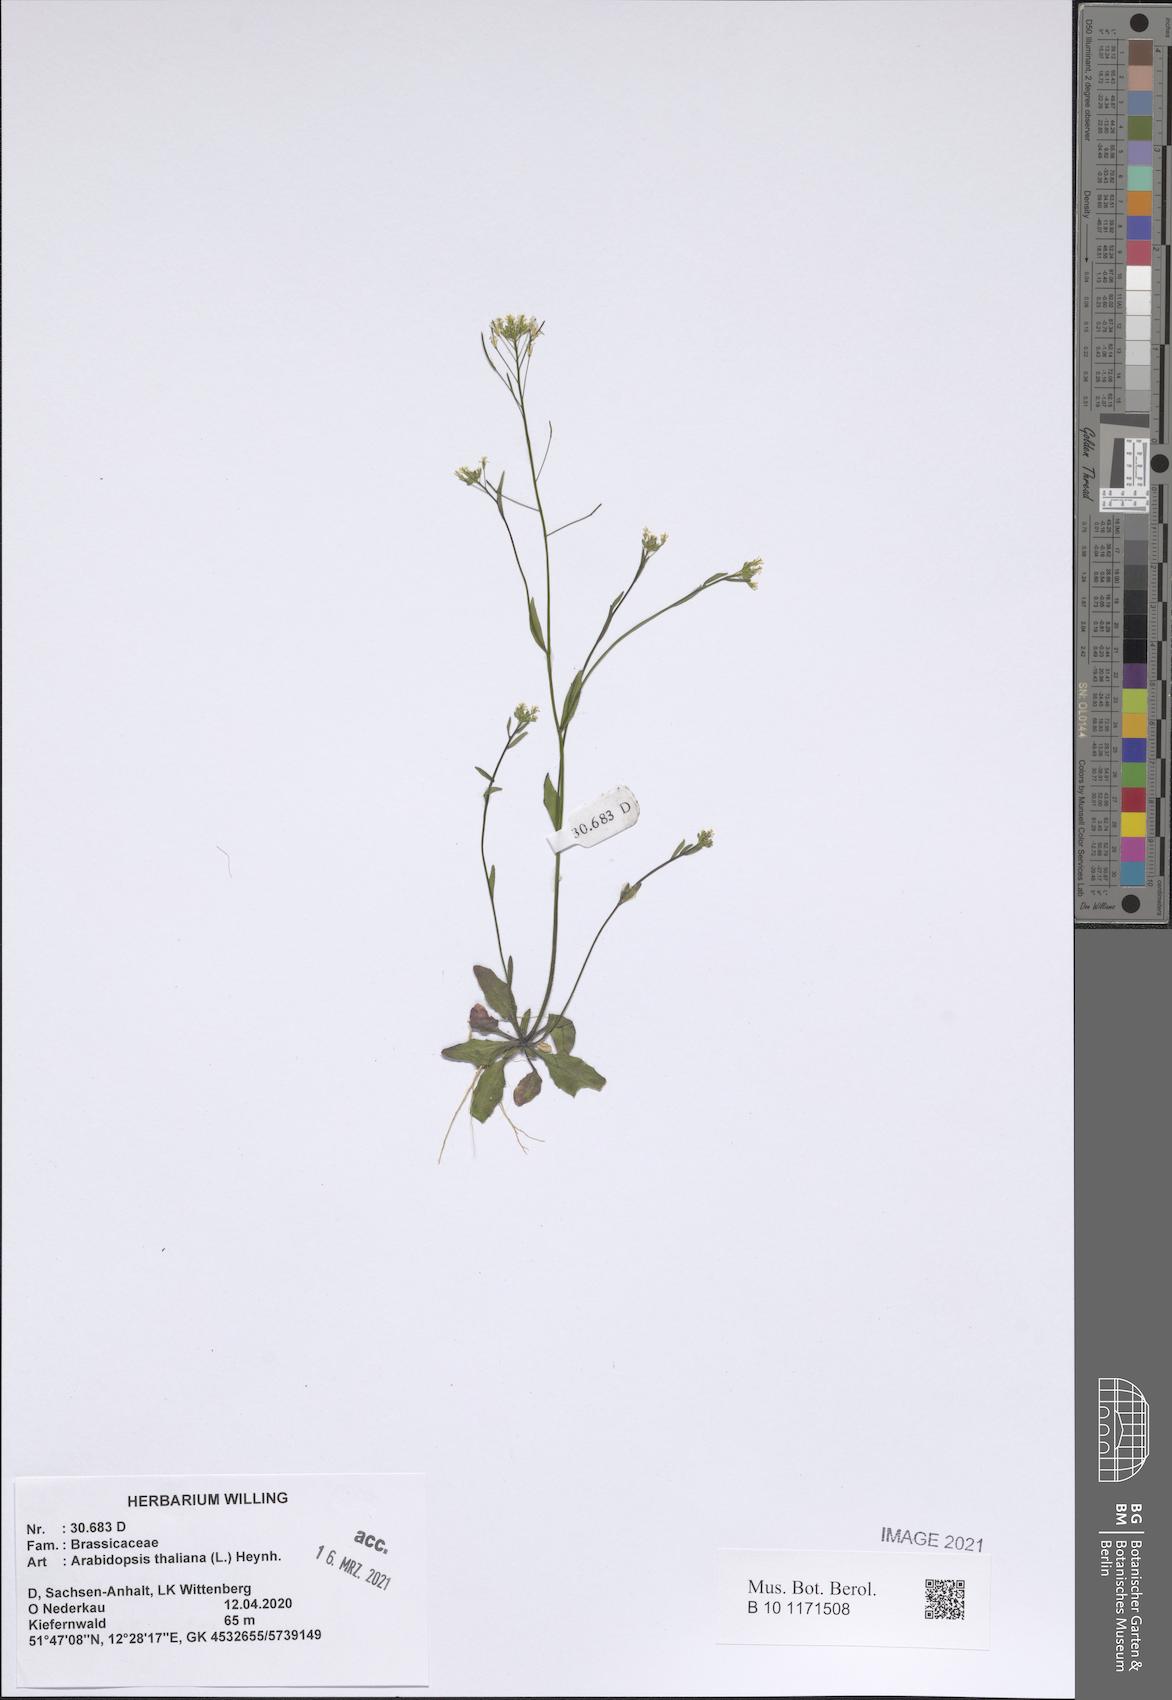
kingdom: Plantae
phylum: Tracheophyta
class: Magnoliopsida
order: Brassicales
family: Brassicaceae
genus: Arabidopsis
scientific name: Arabidopsis thaliana
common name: Thale cress
